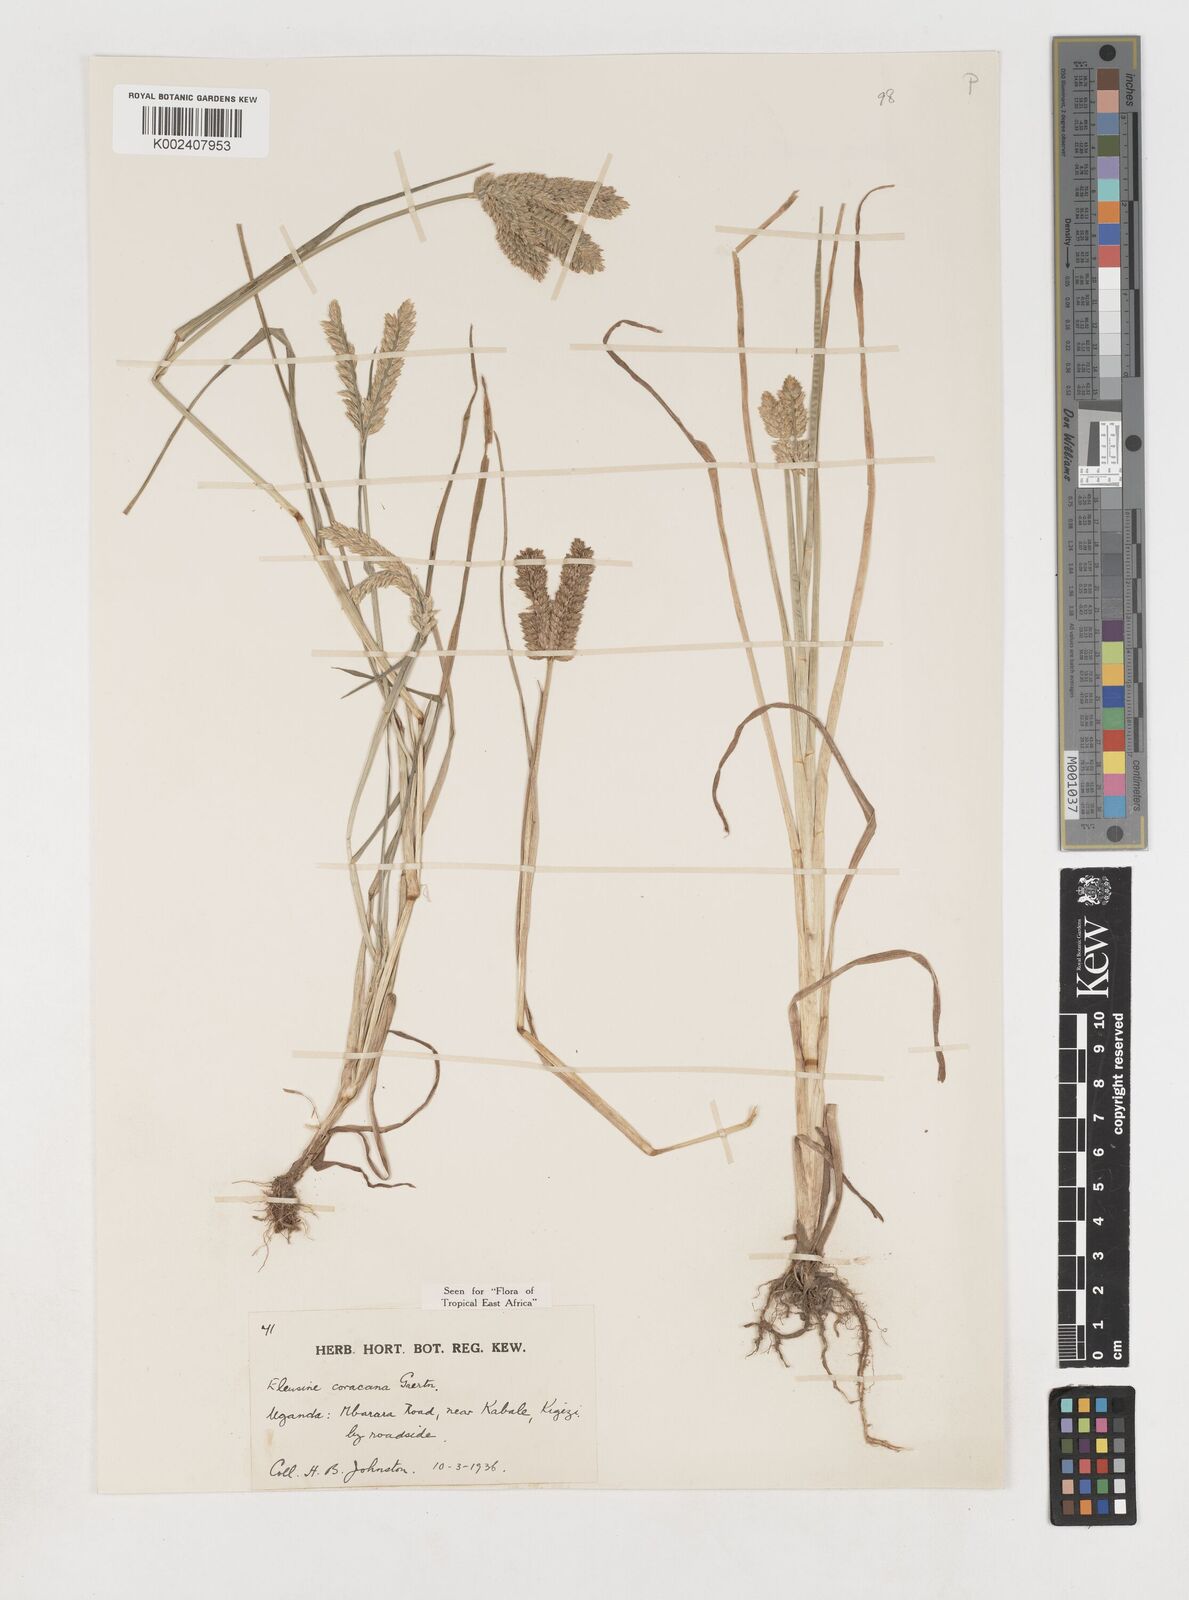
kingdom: Plantae
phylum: Tracheophyta
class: Liliopsida
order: Poales
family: Poaceae
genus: Eleusine
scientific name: Eleusine coracana
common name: Finger millet
